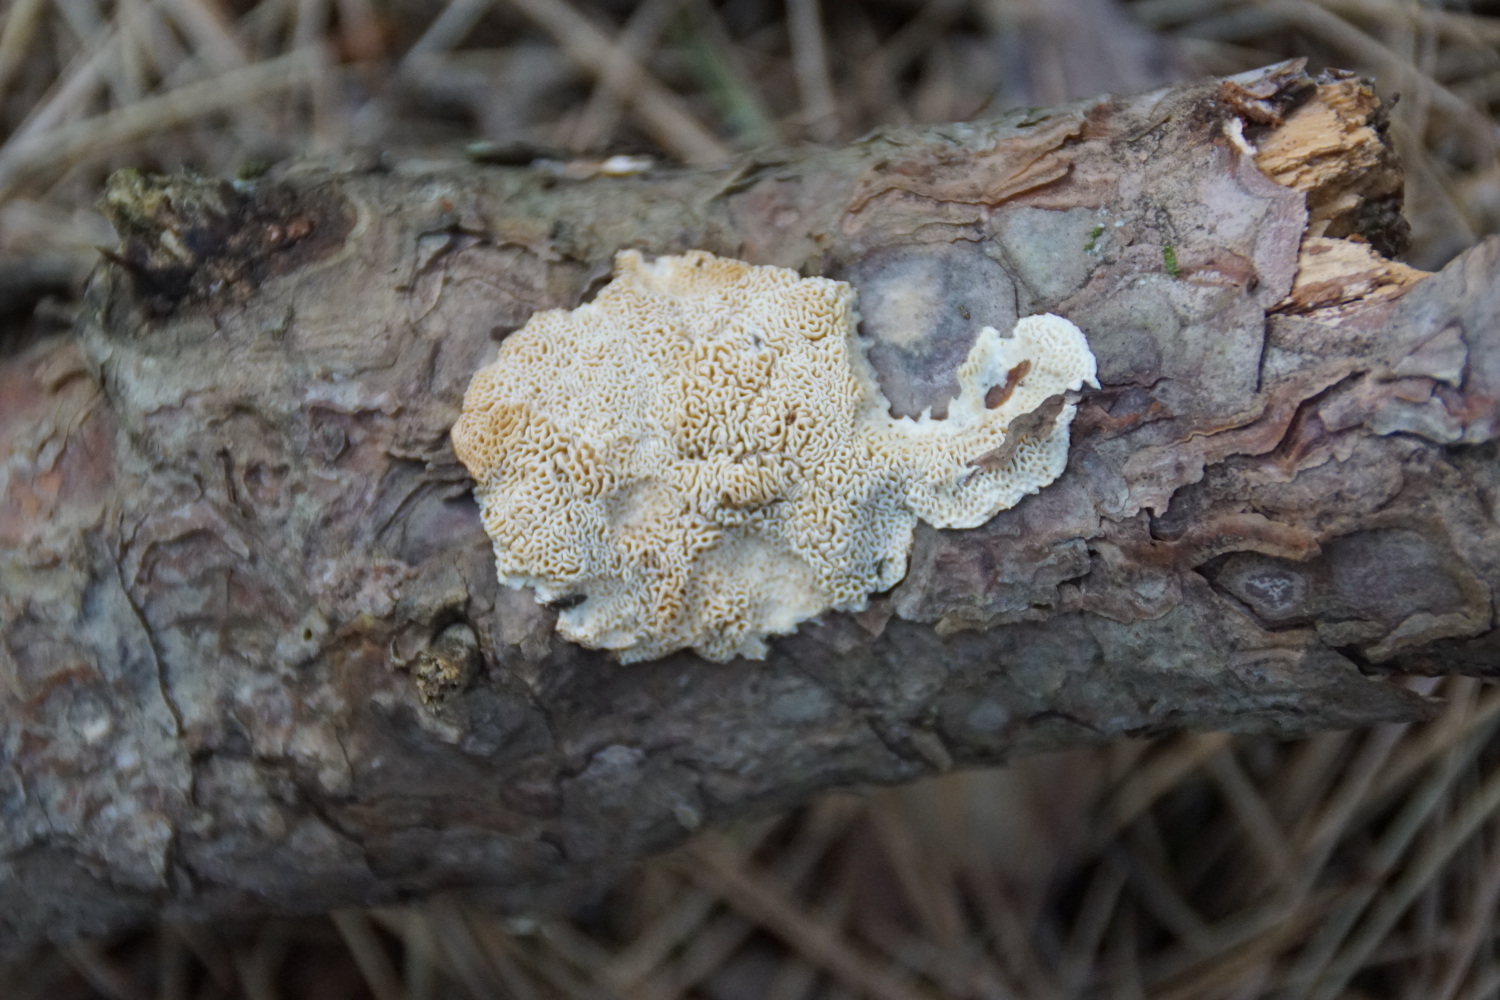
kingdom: Fungi
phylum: Basidiomycota
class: Agaricomycetes
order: Polyporales
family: Fomitopsidaceae
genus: Fomitopsis
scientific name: Fomitopsis
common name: fyrre-skiveporesvamp
